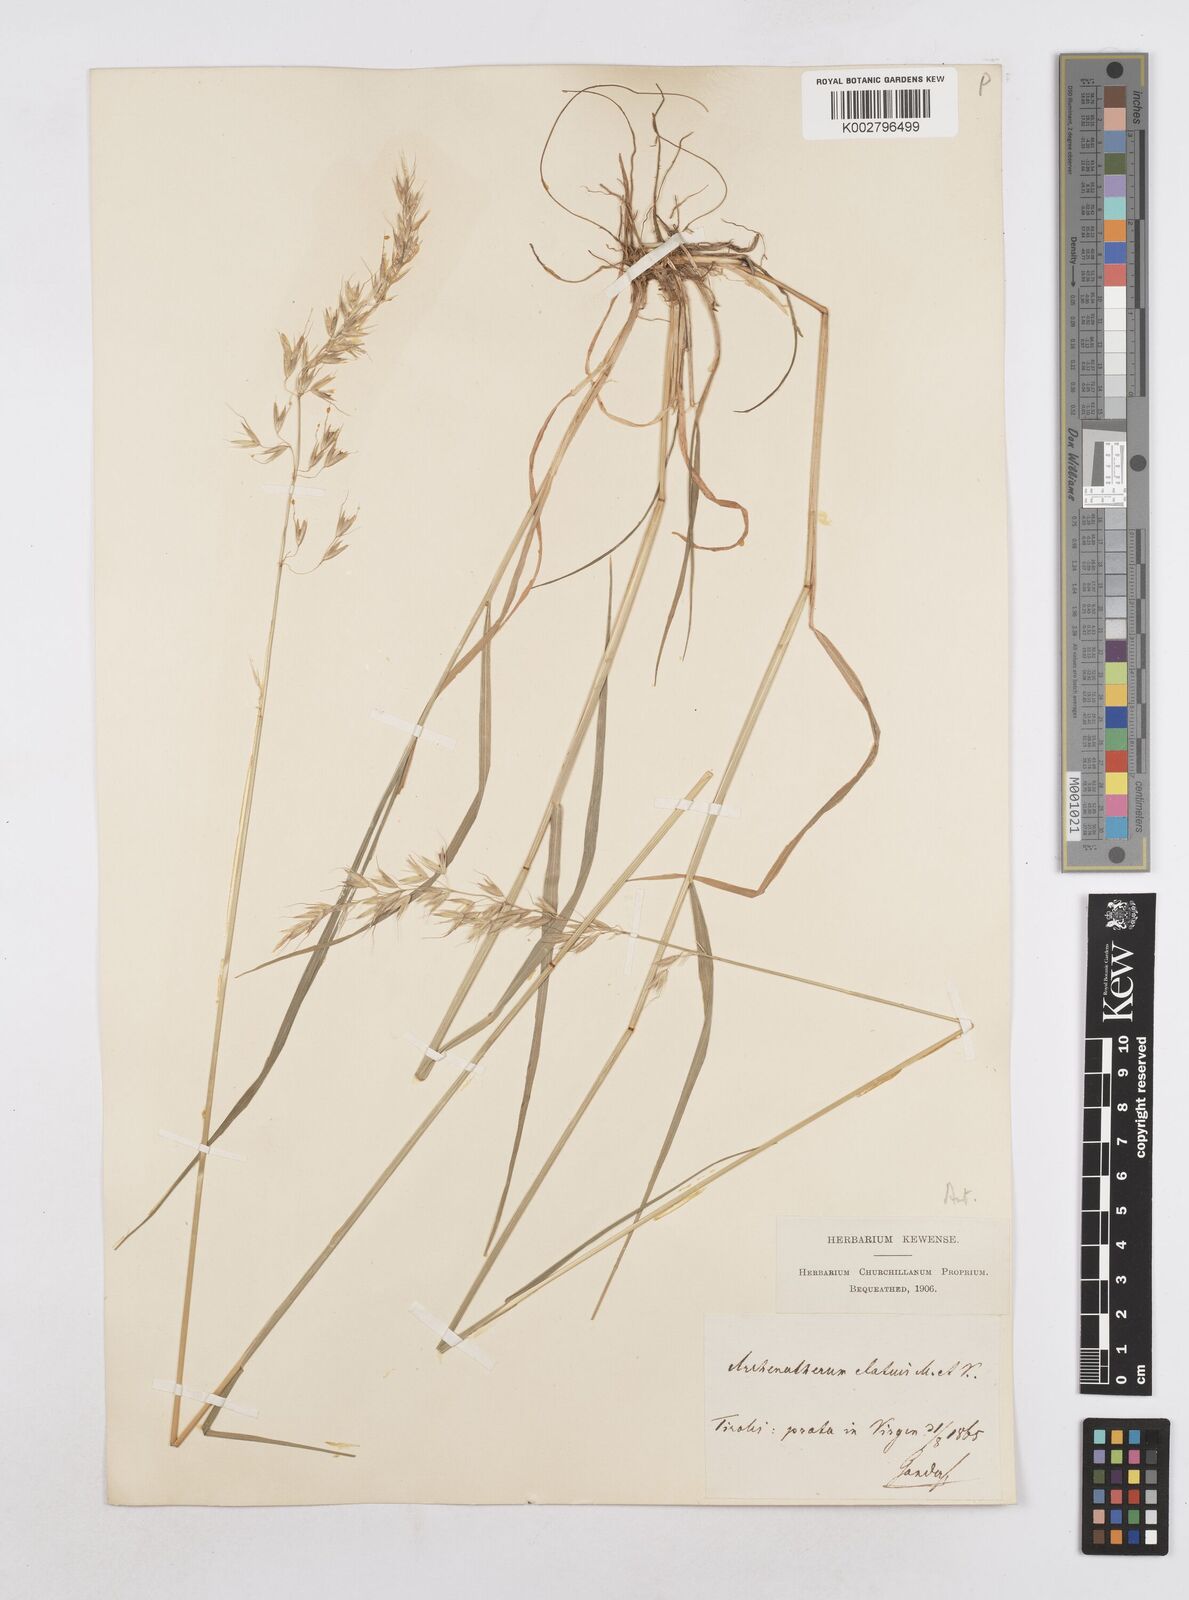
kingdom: Plantae
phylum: Tracheophyta
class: Liliopsida
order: Poales
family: Poaceae
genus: Arrhenatherum
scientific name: Arrhenatherum elatius
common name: Tall oatgrass
